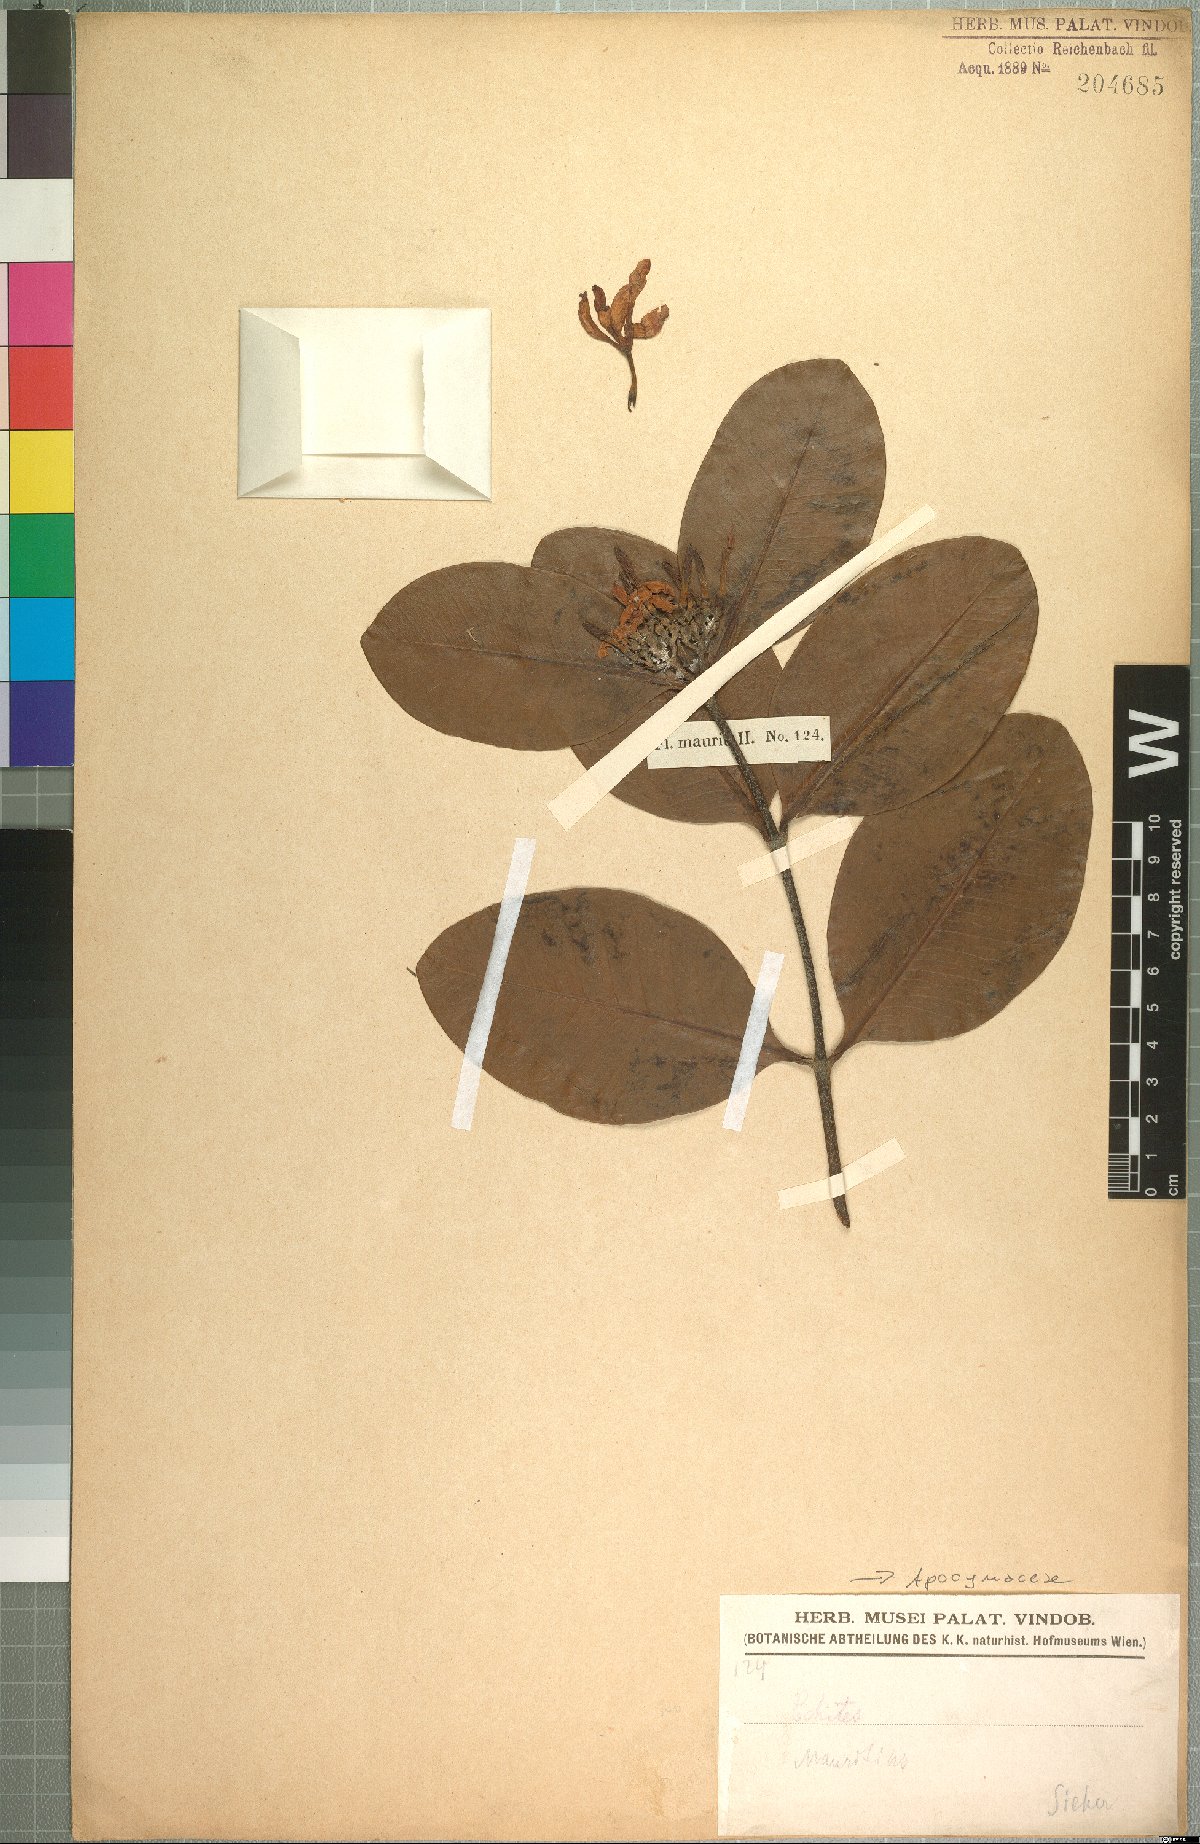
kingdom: Plantae
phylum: Tracheophyta
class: Magnoliopsida
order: Gentianales
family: Apocynaceae
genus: Landolphia
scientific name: Landolphia gummifera
